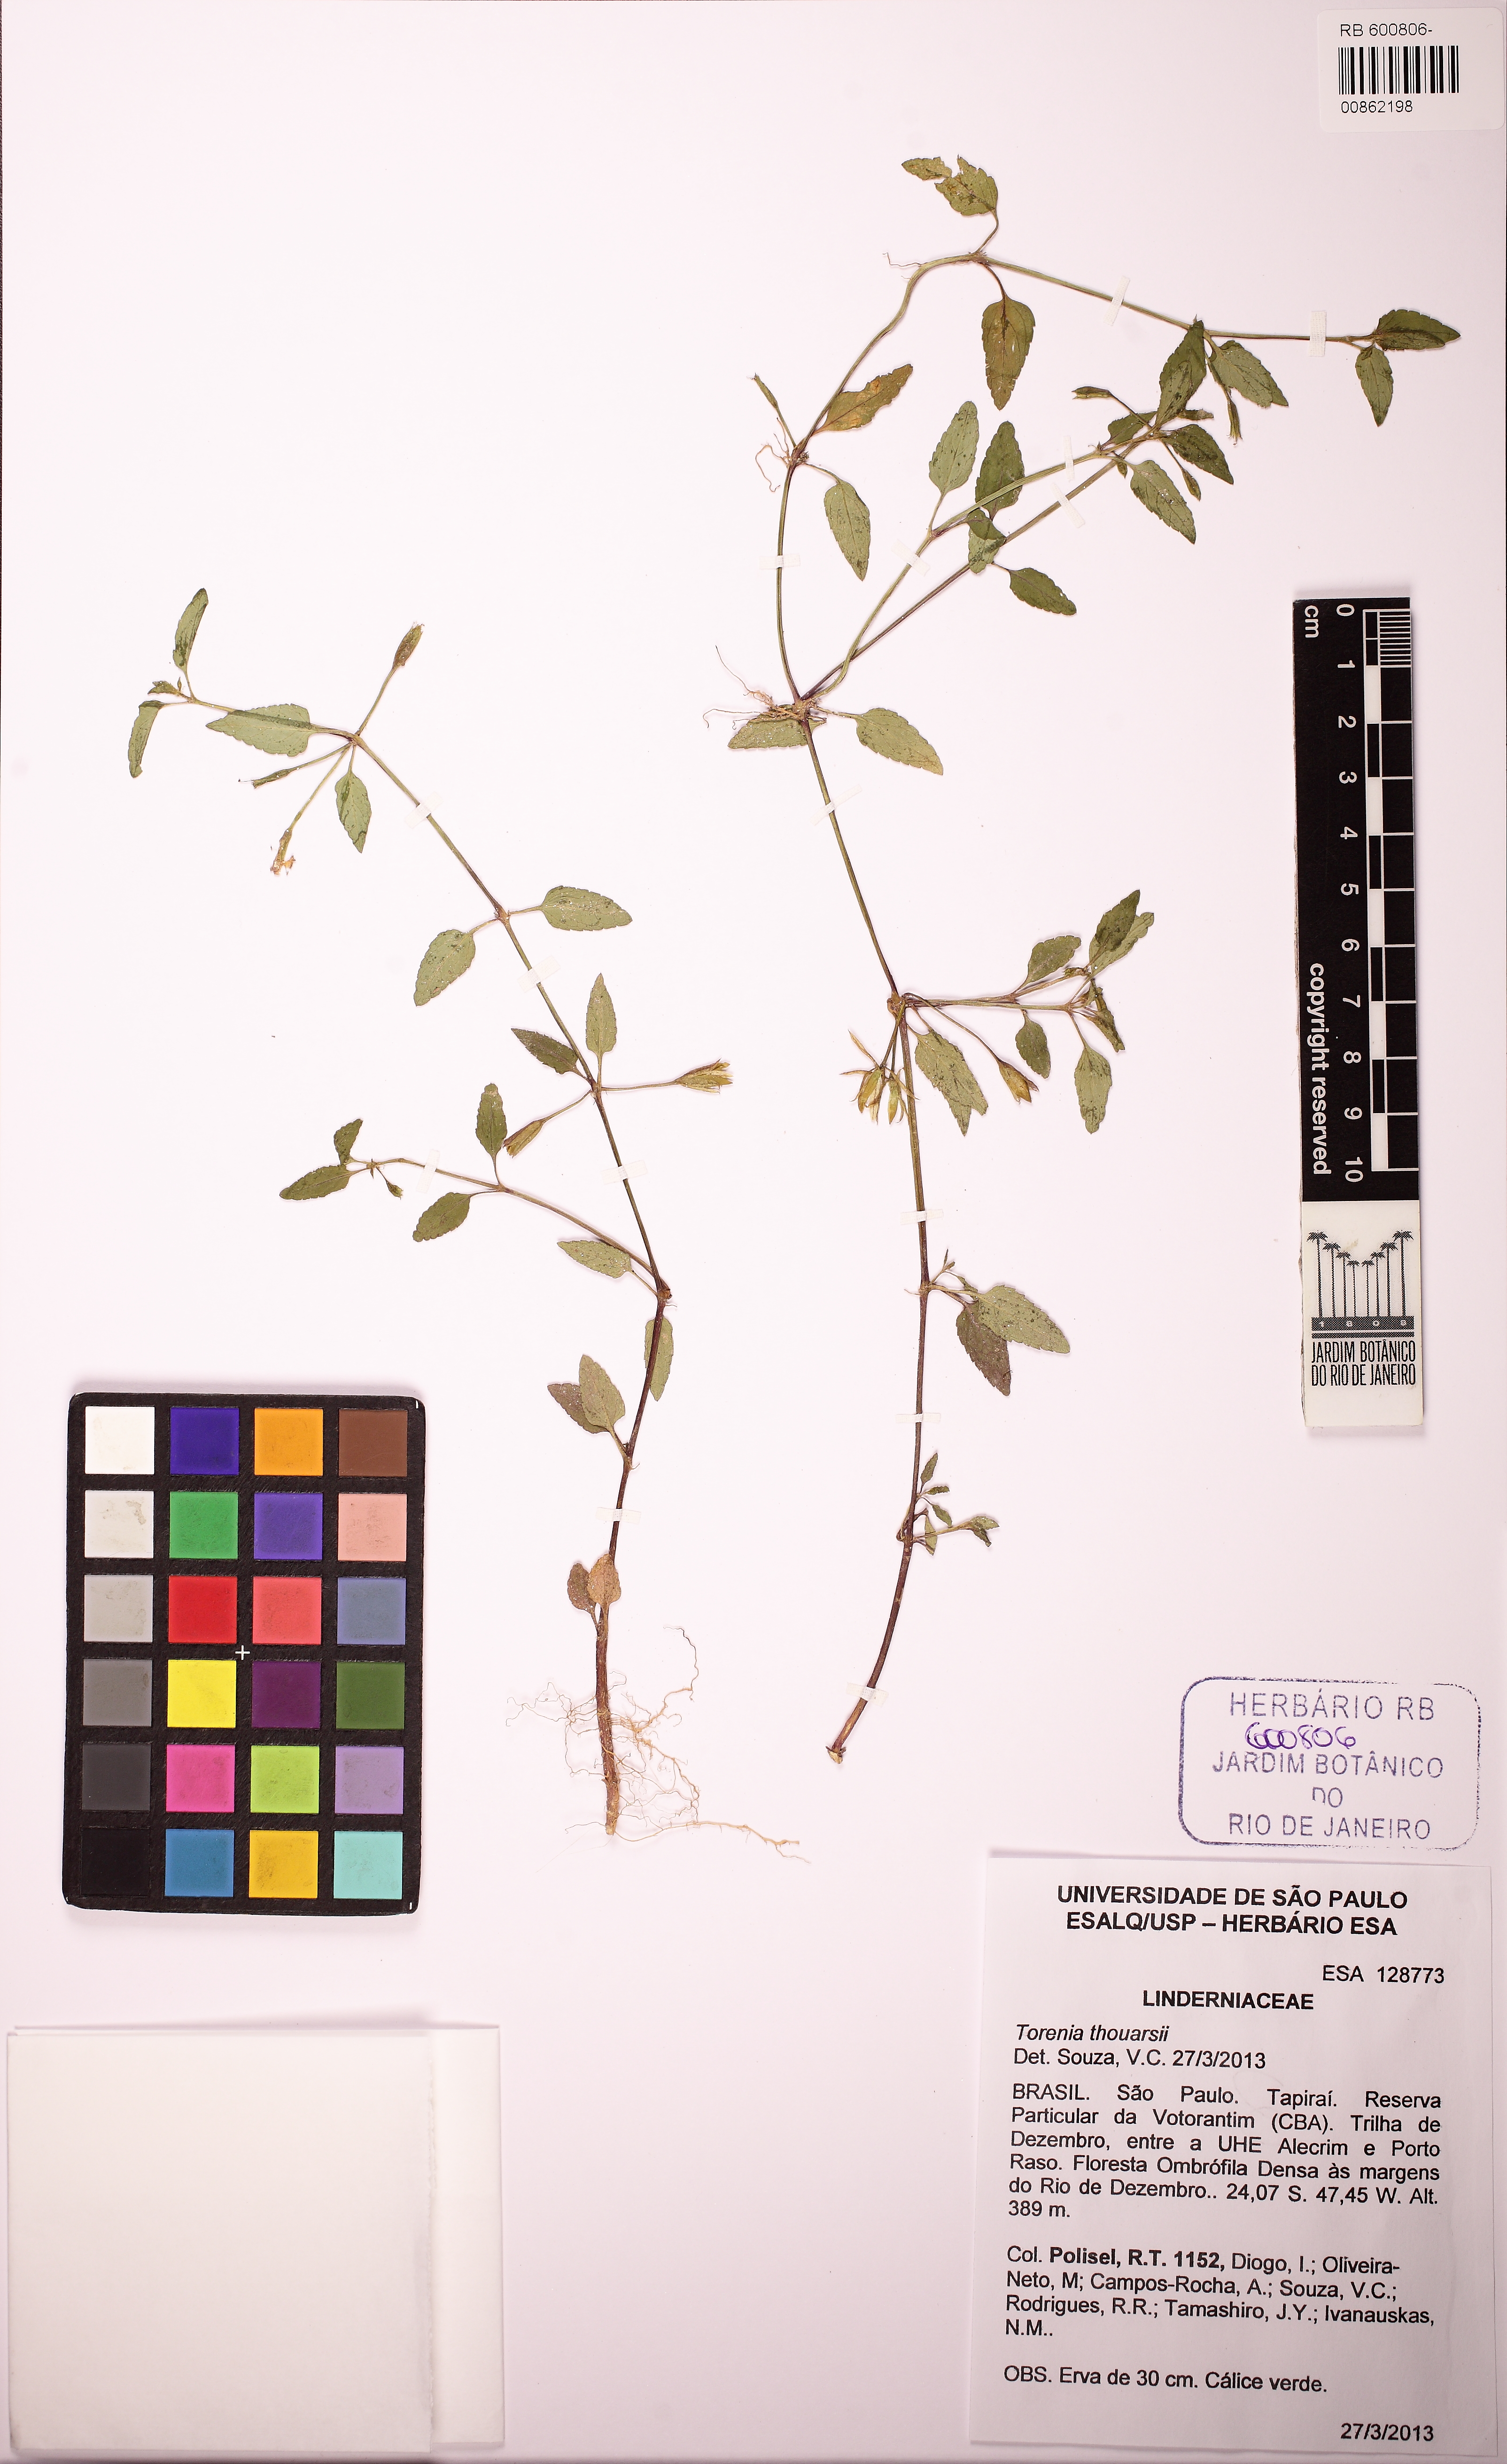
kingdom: Plantae
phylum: Tracheophyta
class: Magnoliopsida
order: Lamiales
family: Linderniaceae
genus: Torenia
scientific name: Torenia thouarsii
